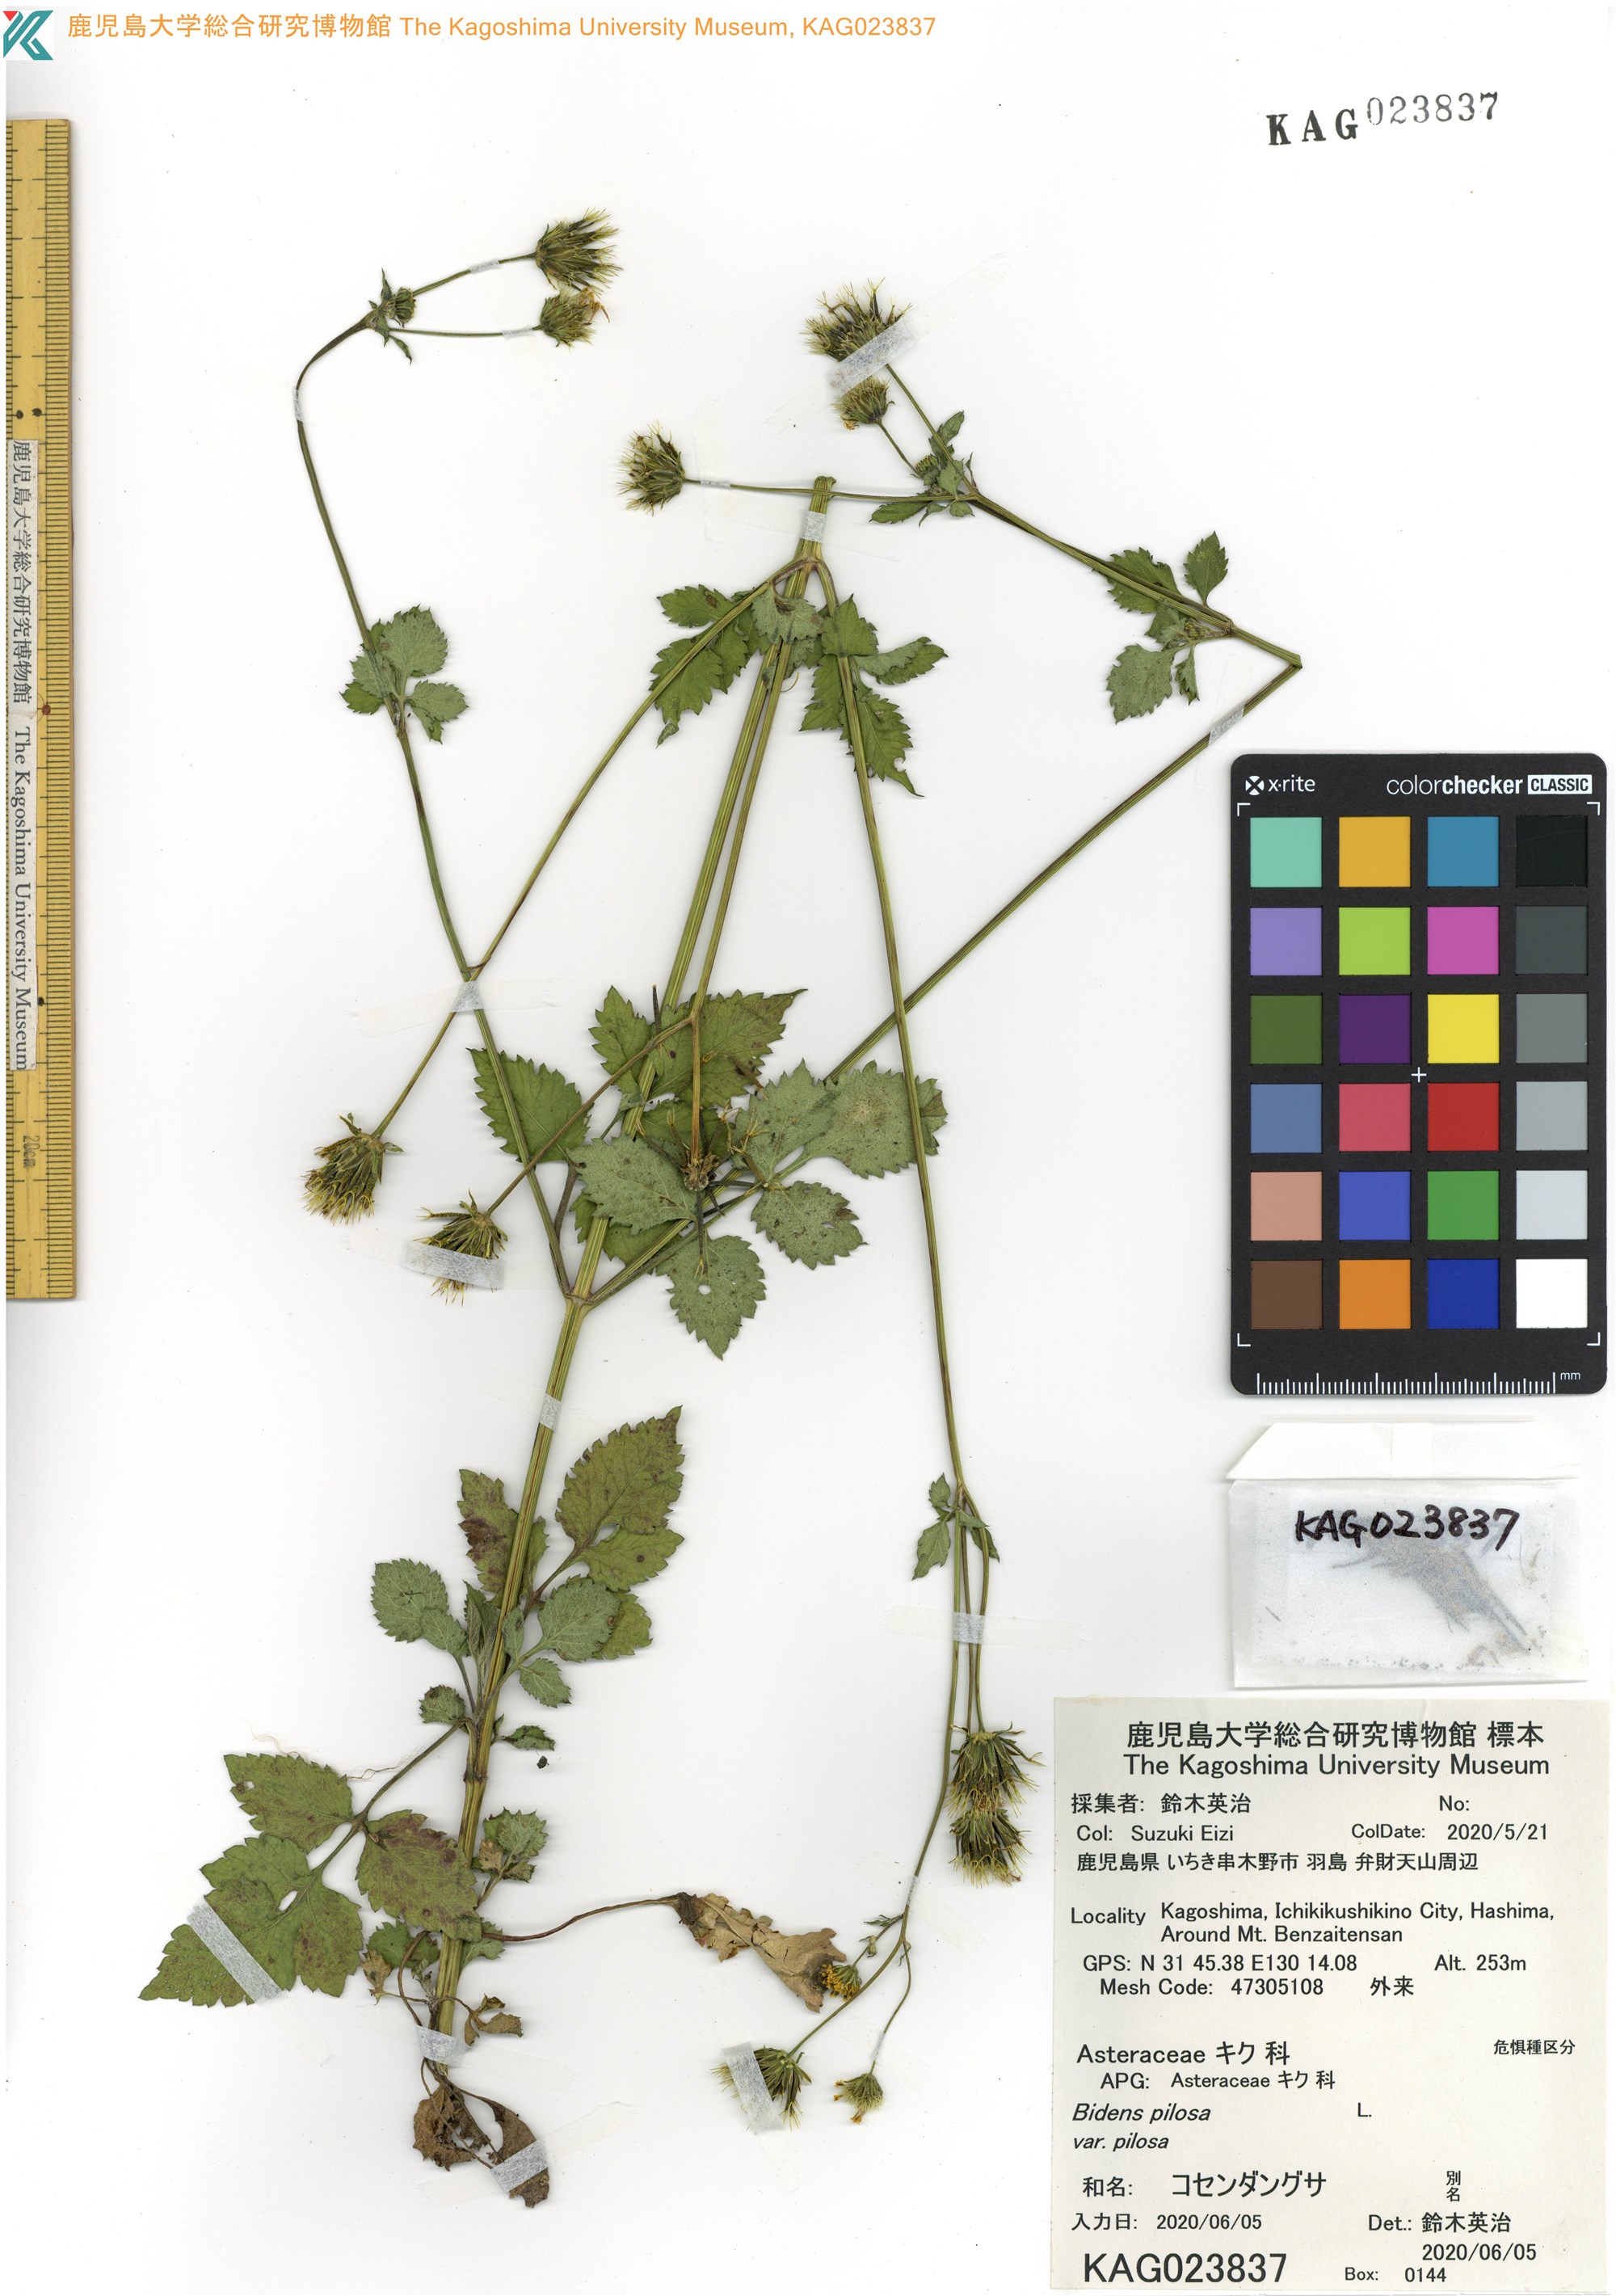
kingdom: Plantae
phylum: Tracheophyta
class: Magnoliopsida
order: Asterales
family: Asteraceae
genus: Bidens
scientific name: Bidens pilosa
